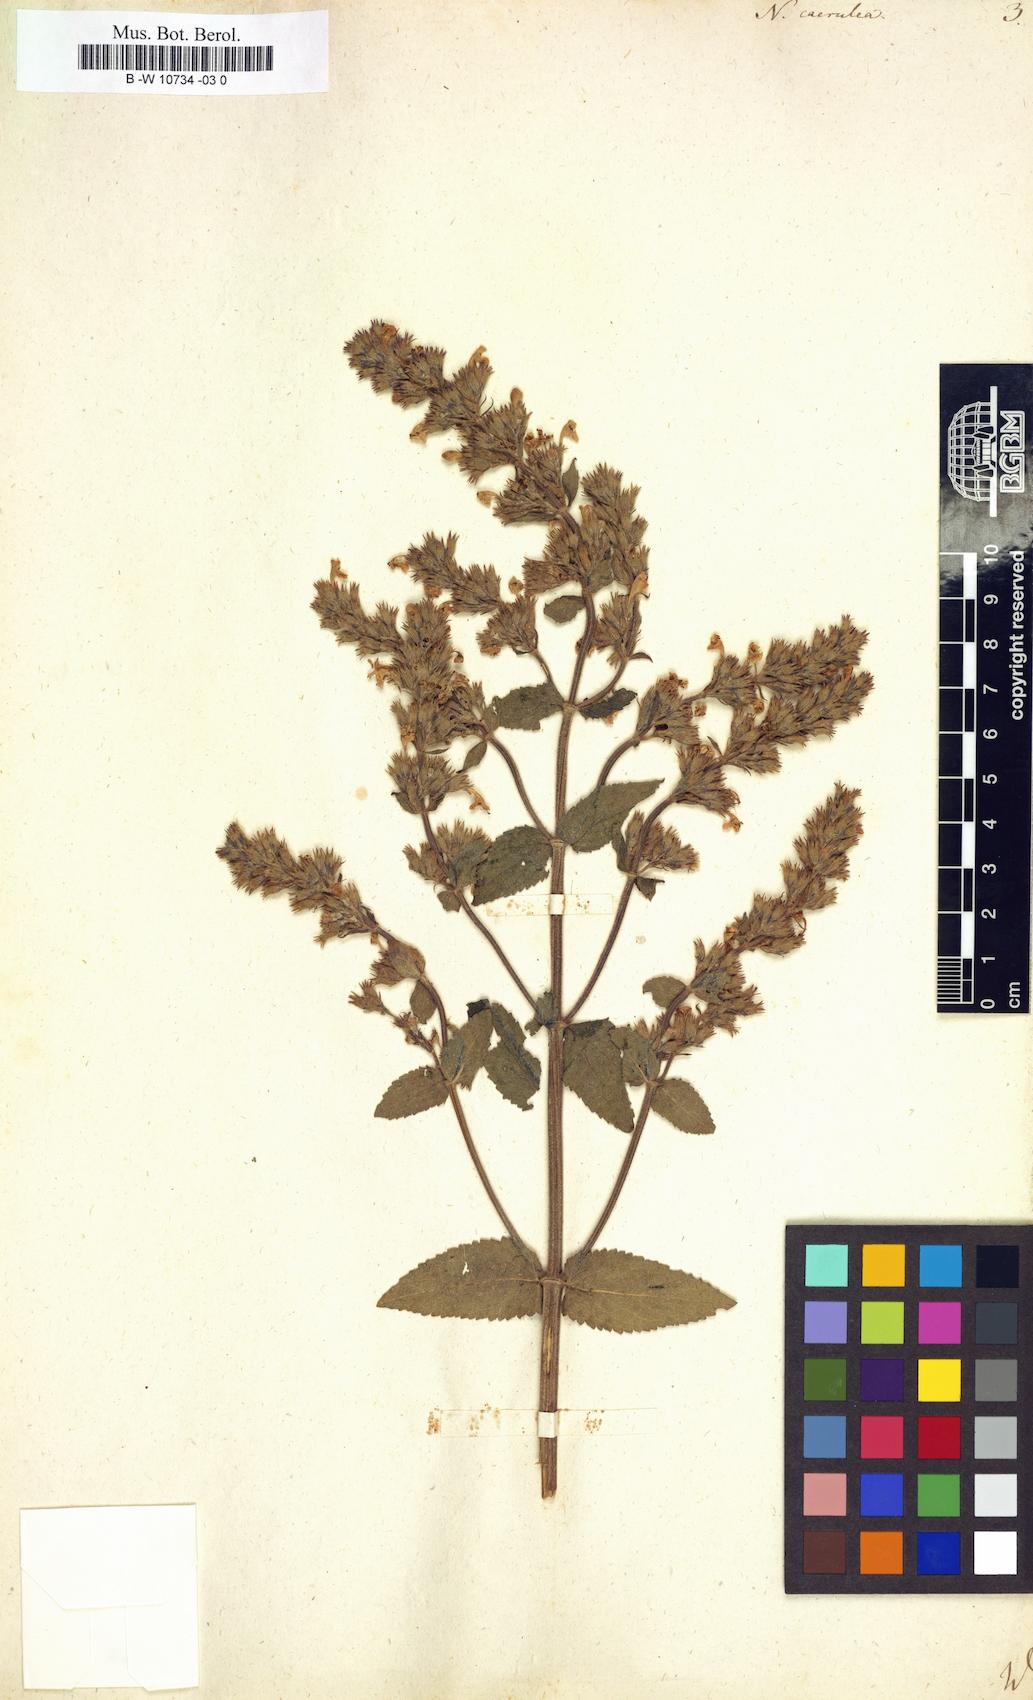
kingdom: Plantae
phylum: Tracheophyta
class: Magnoliopsida
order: Lamiales
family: Lamiaceae
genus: Nepeta
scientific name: Nepeta caerulea
